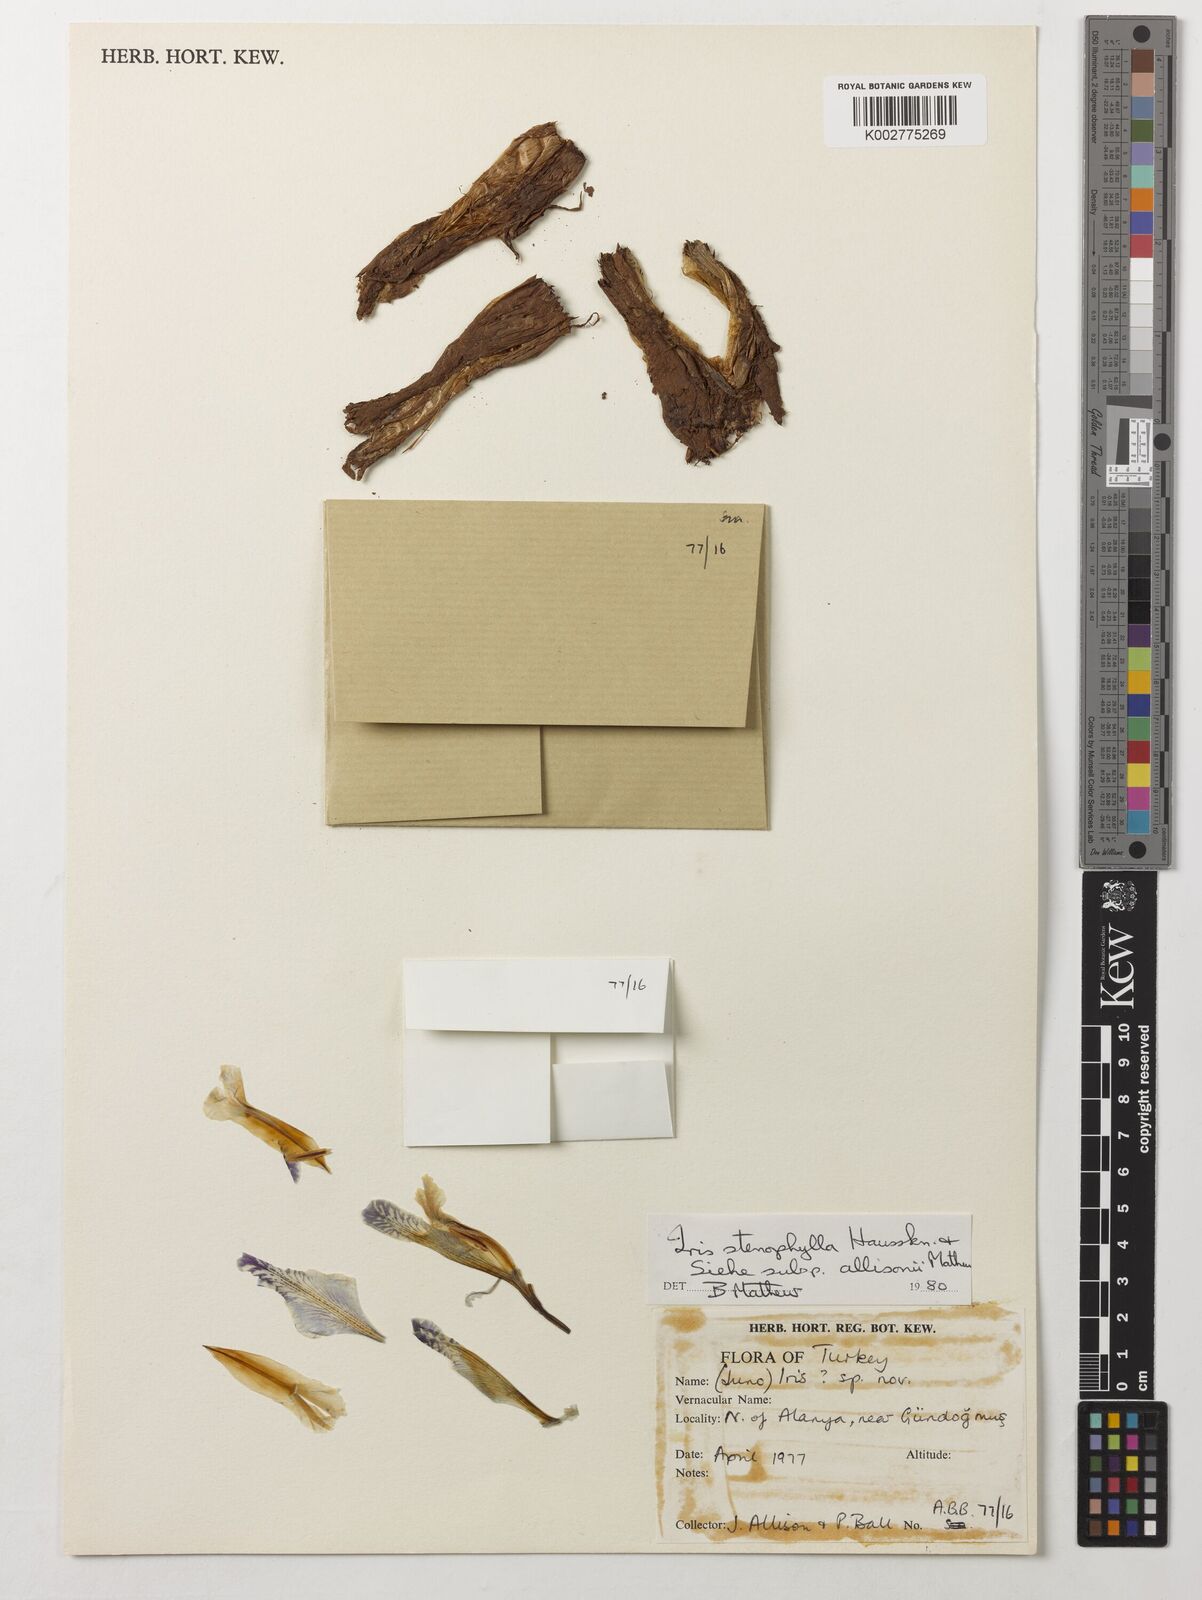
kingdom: Plantae
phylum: Tracheophyta
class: Liliopsida
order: Asparagales
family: Iridaceae
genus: Iris
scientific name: Iris stenophylla
